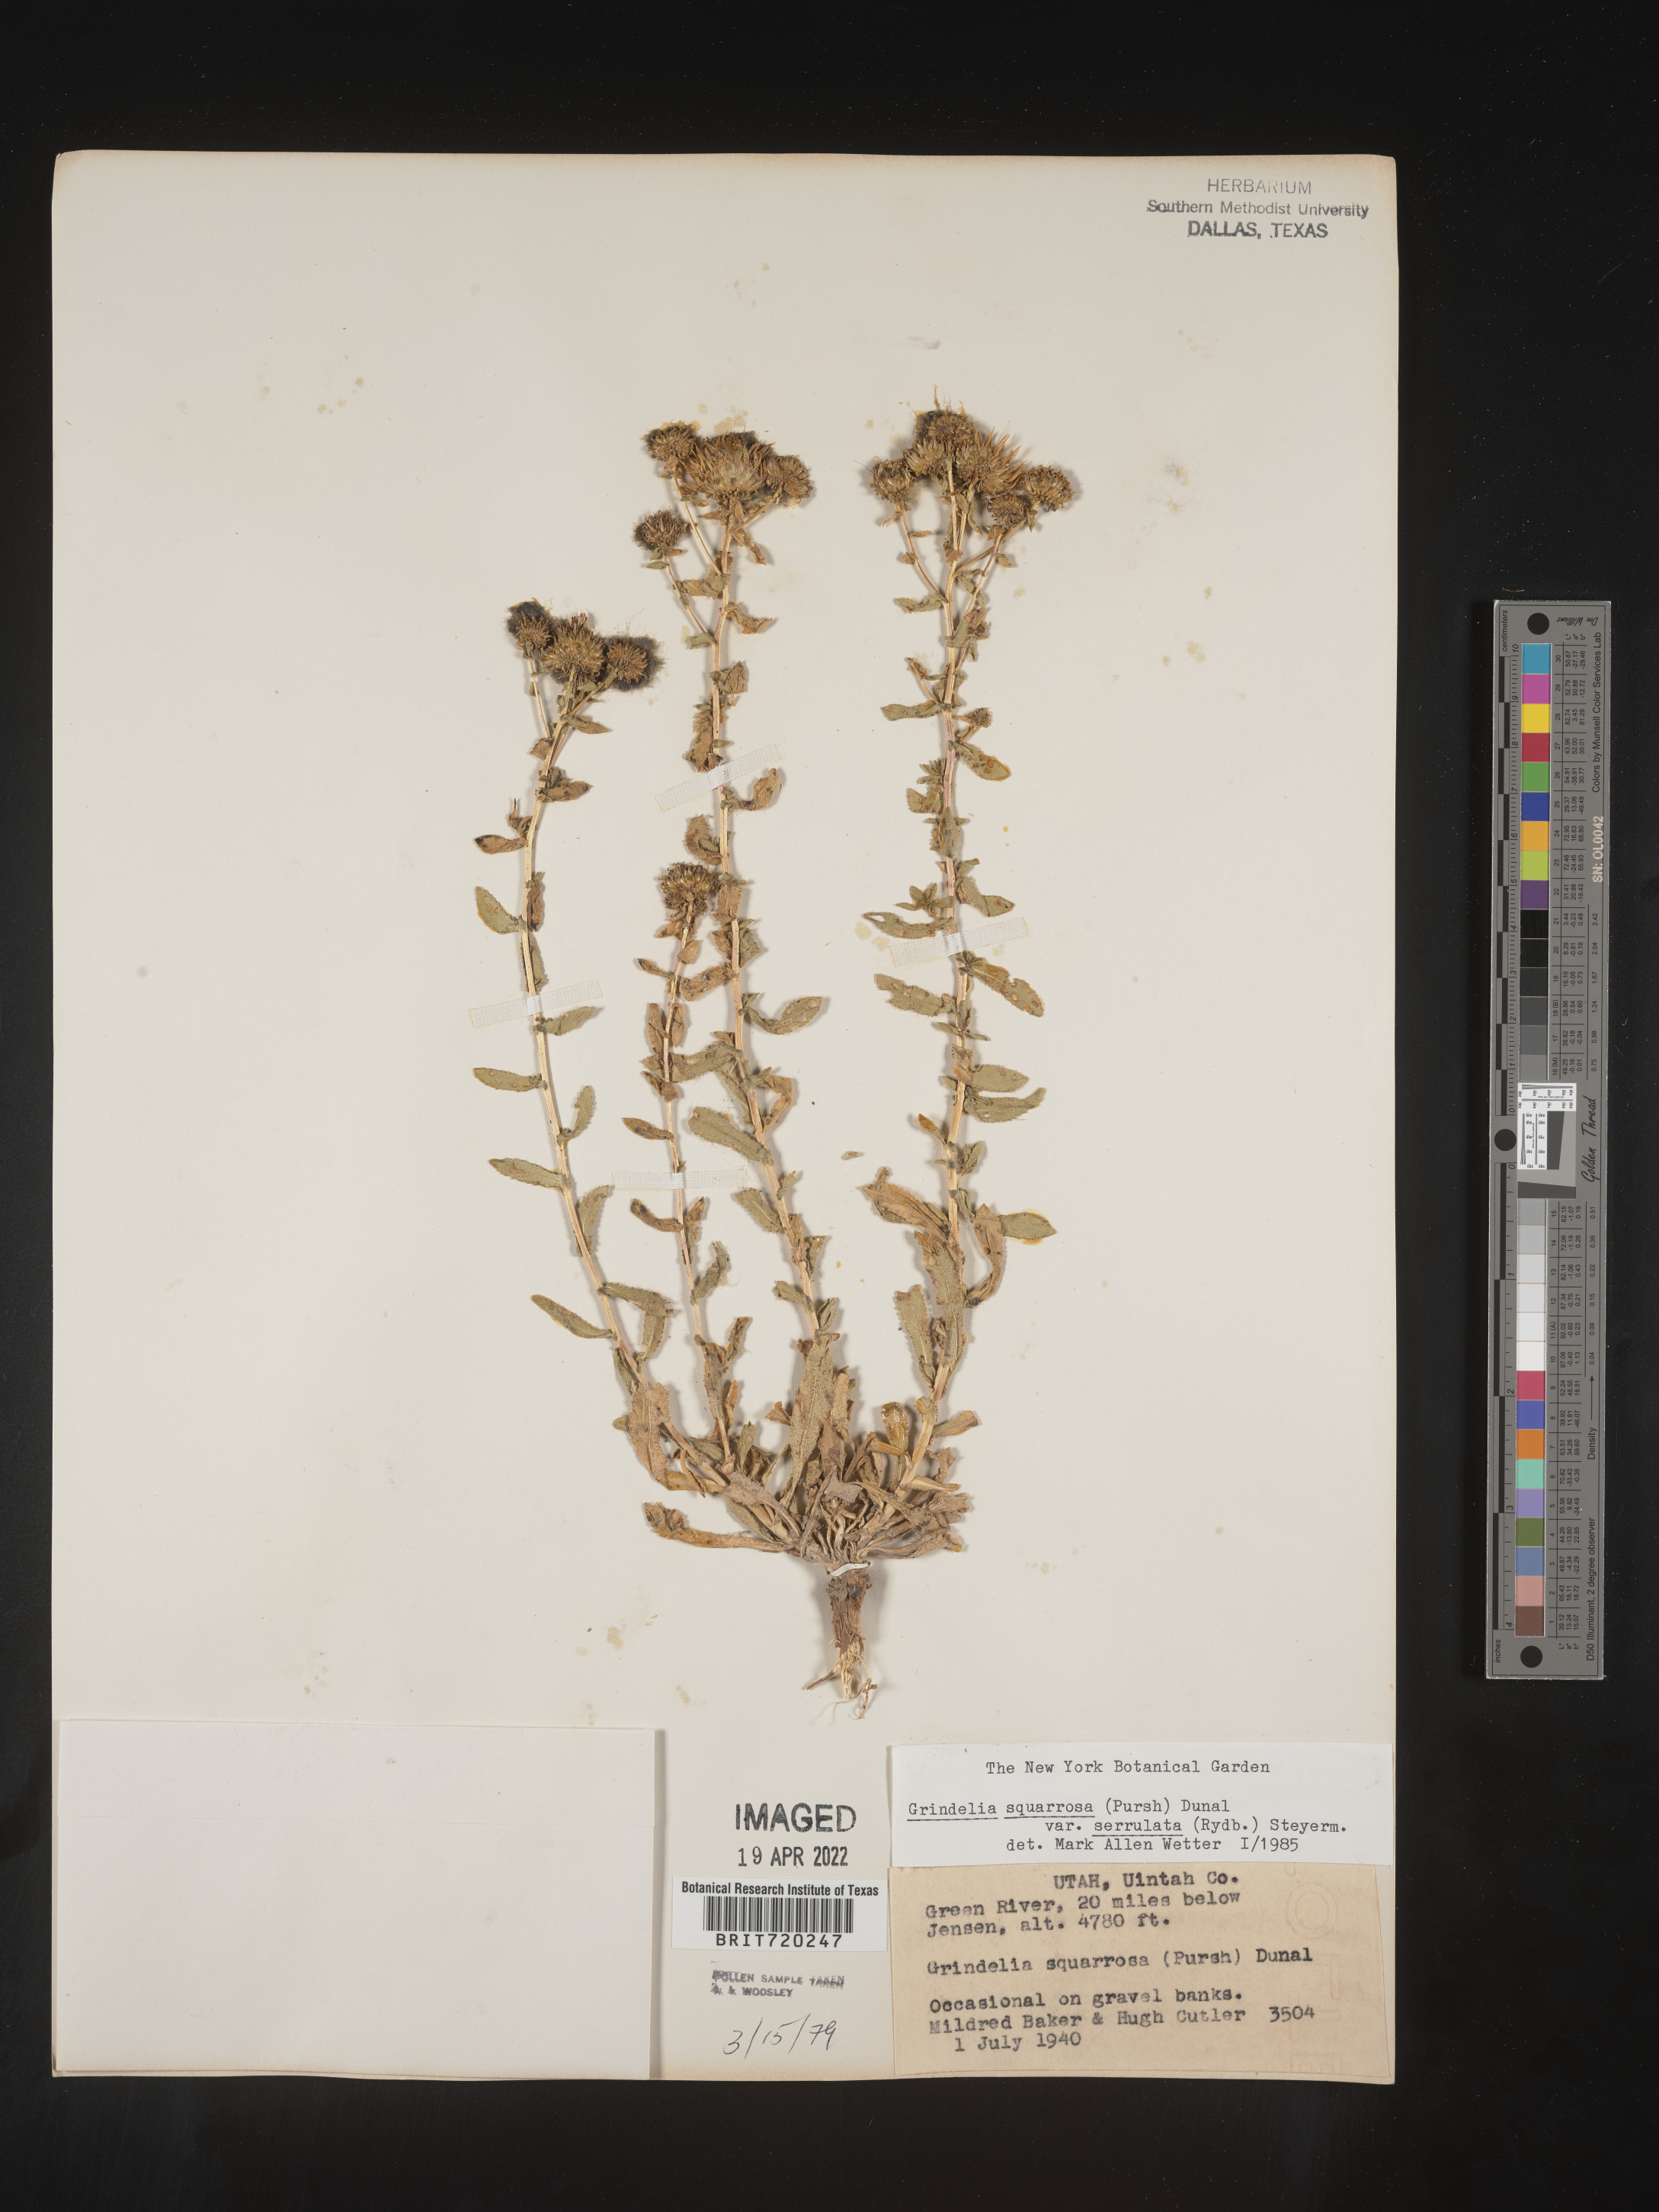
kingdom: Plantae
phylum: Tracheophyta
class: Magnoliopsida
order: Asterales
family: Asteraceae
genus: Grindelia
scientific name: Grindelia squarrosa
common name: Curly-cup gumweed
